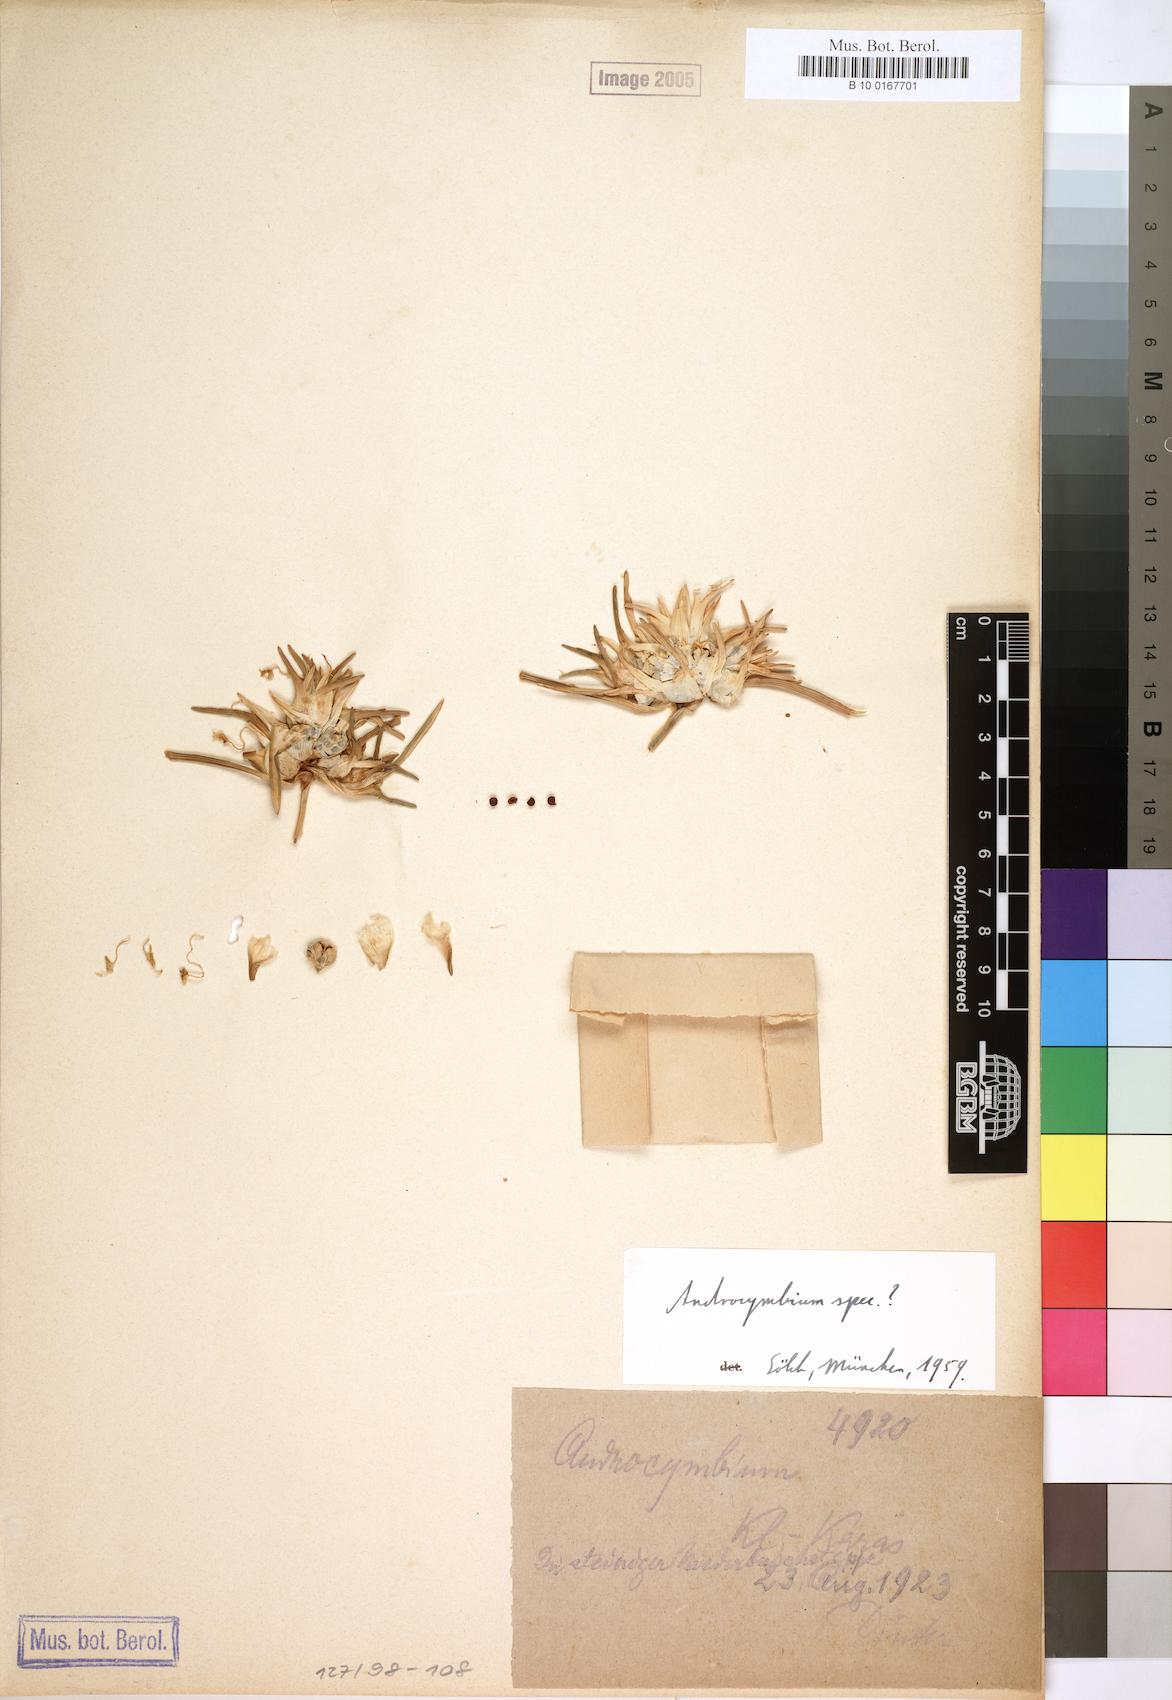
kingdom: Plantae
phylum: Tracheophyta
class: Liliopsida
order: Liliales
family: Colchicaceae
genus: Colchicum
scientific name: Colchicum
